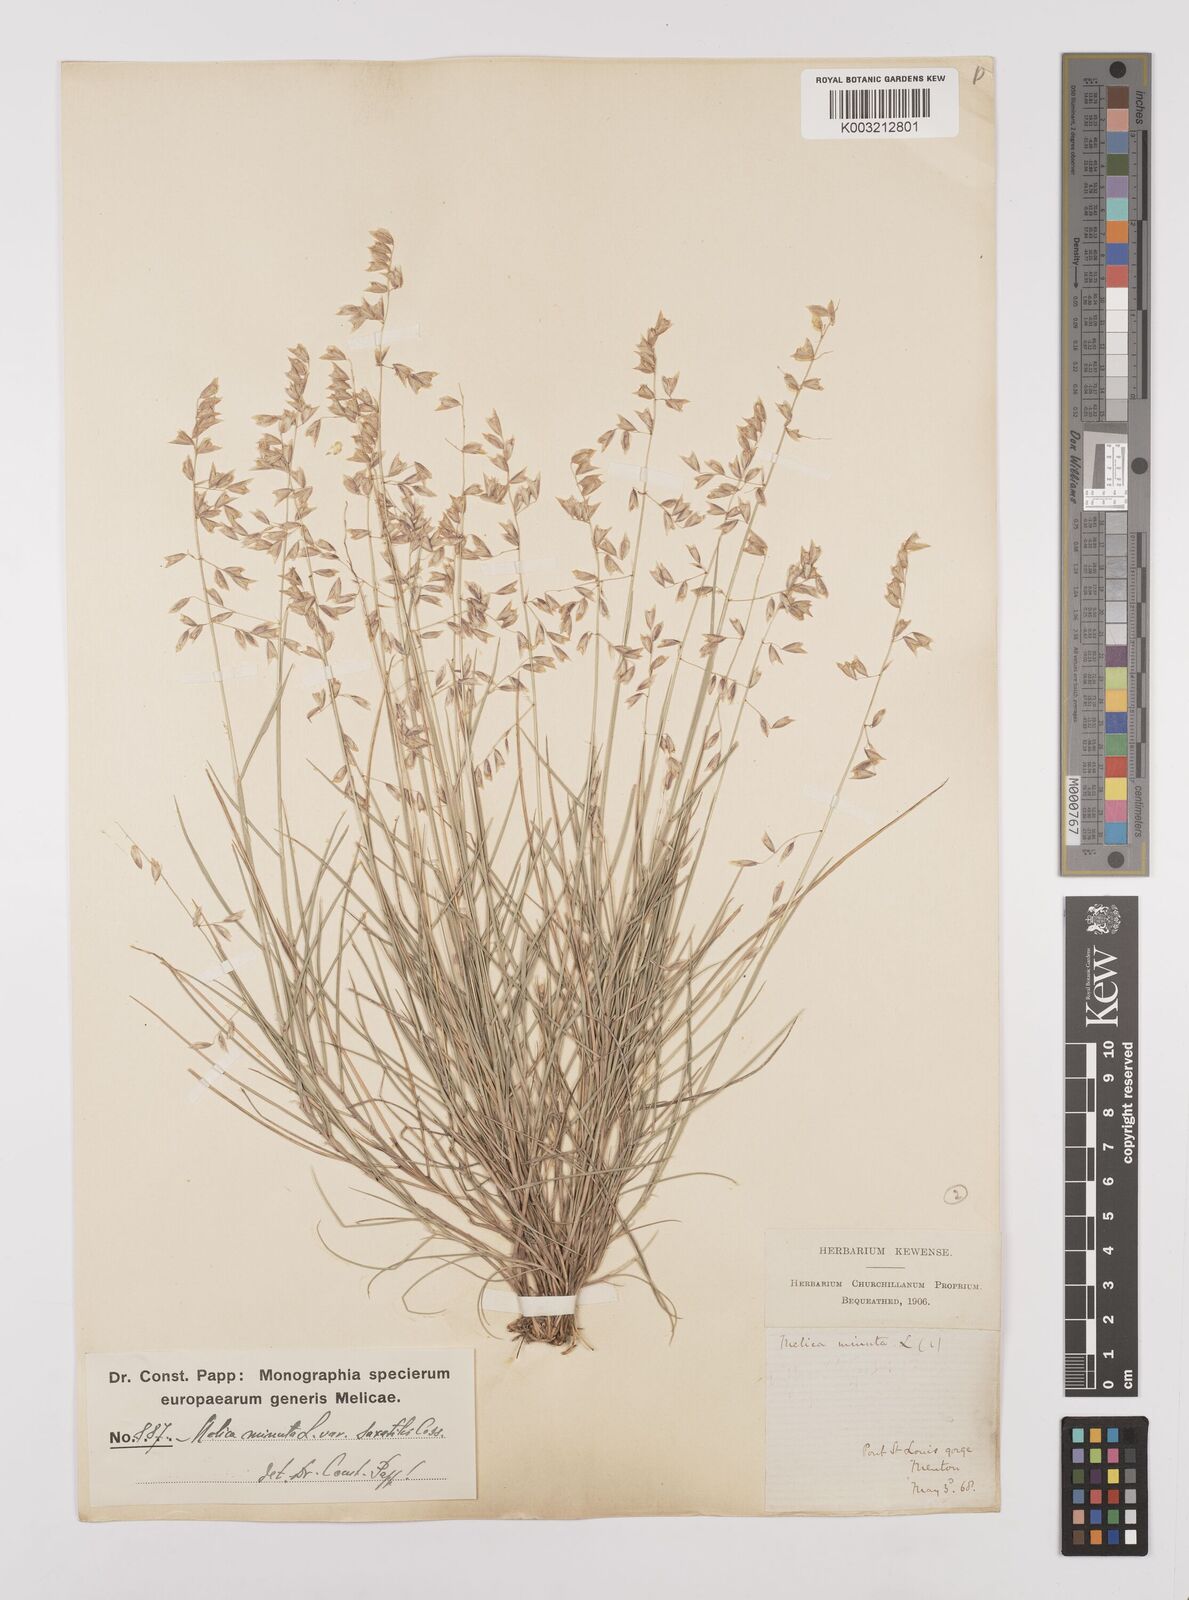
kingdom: Plantae
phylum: Tracheophyta
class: Liliopsida
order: Poales
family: Poaceae
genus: Melica
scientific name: Melica minuta
